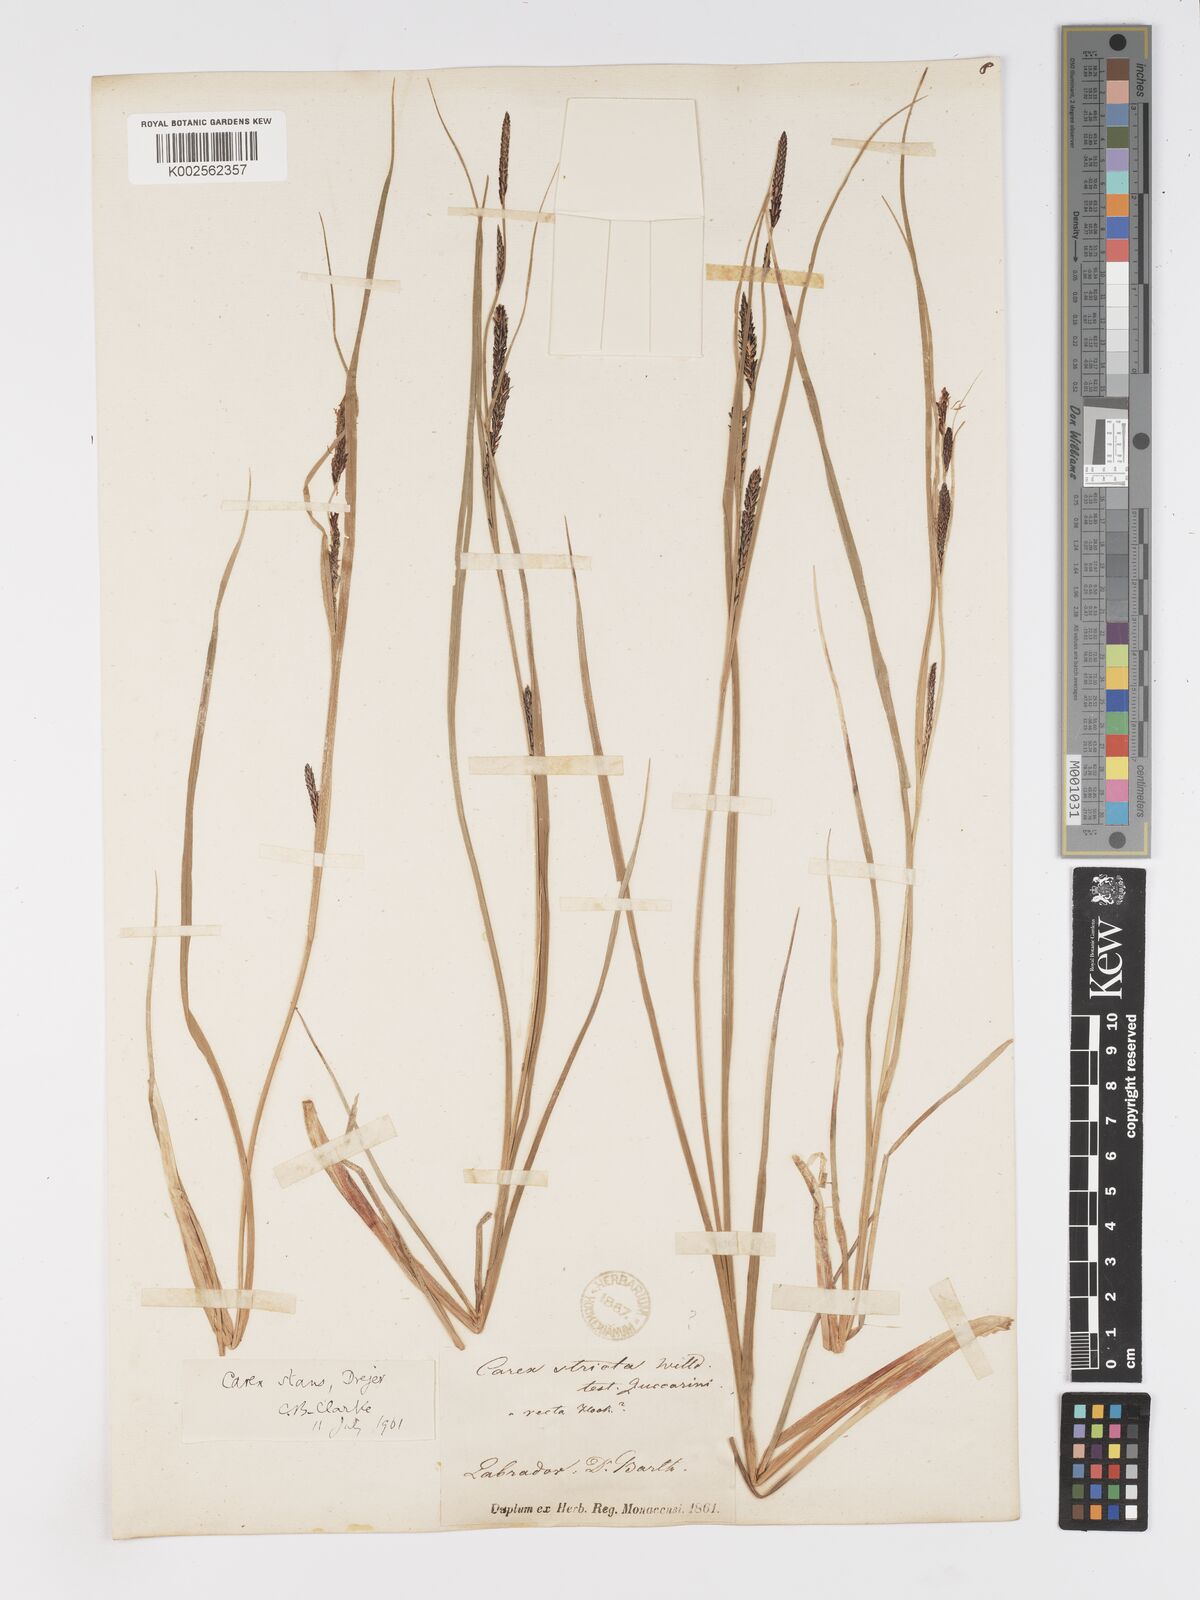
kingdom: Plantae
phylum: Tracheophyta
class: Liliopsida
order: Poales
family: Cyperaceae
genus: Carex
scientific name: Carex aquatilis
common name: Water sedge
